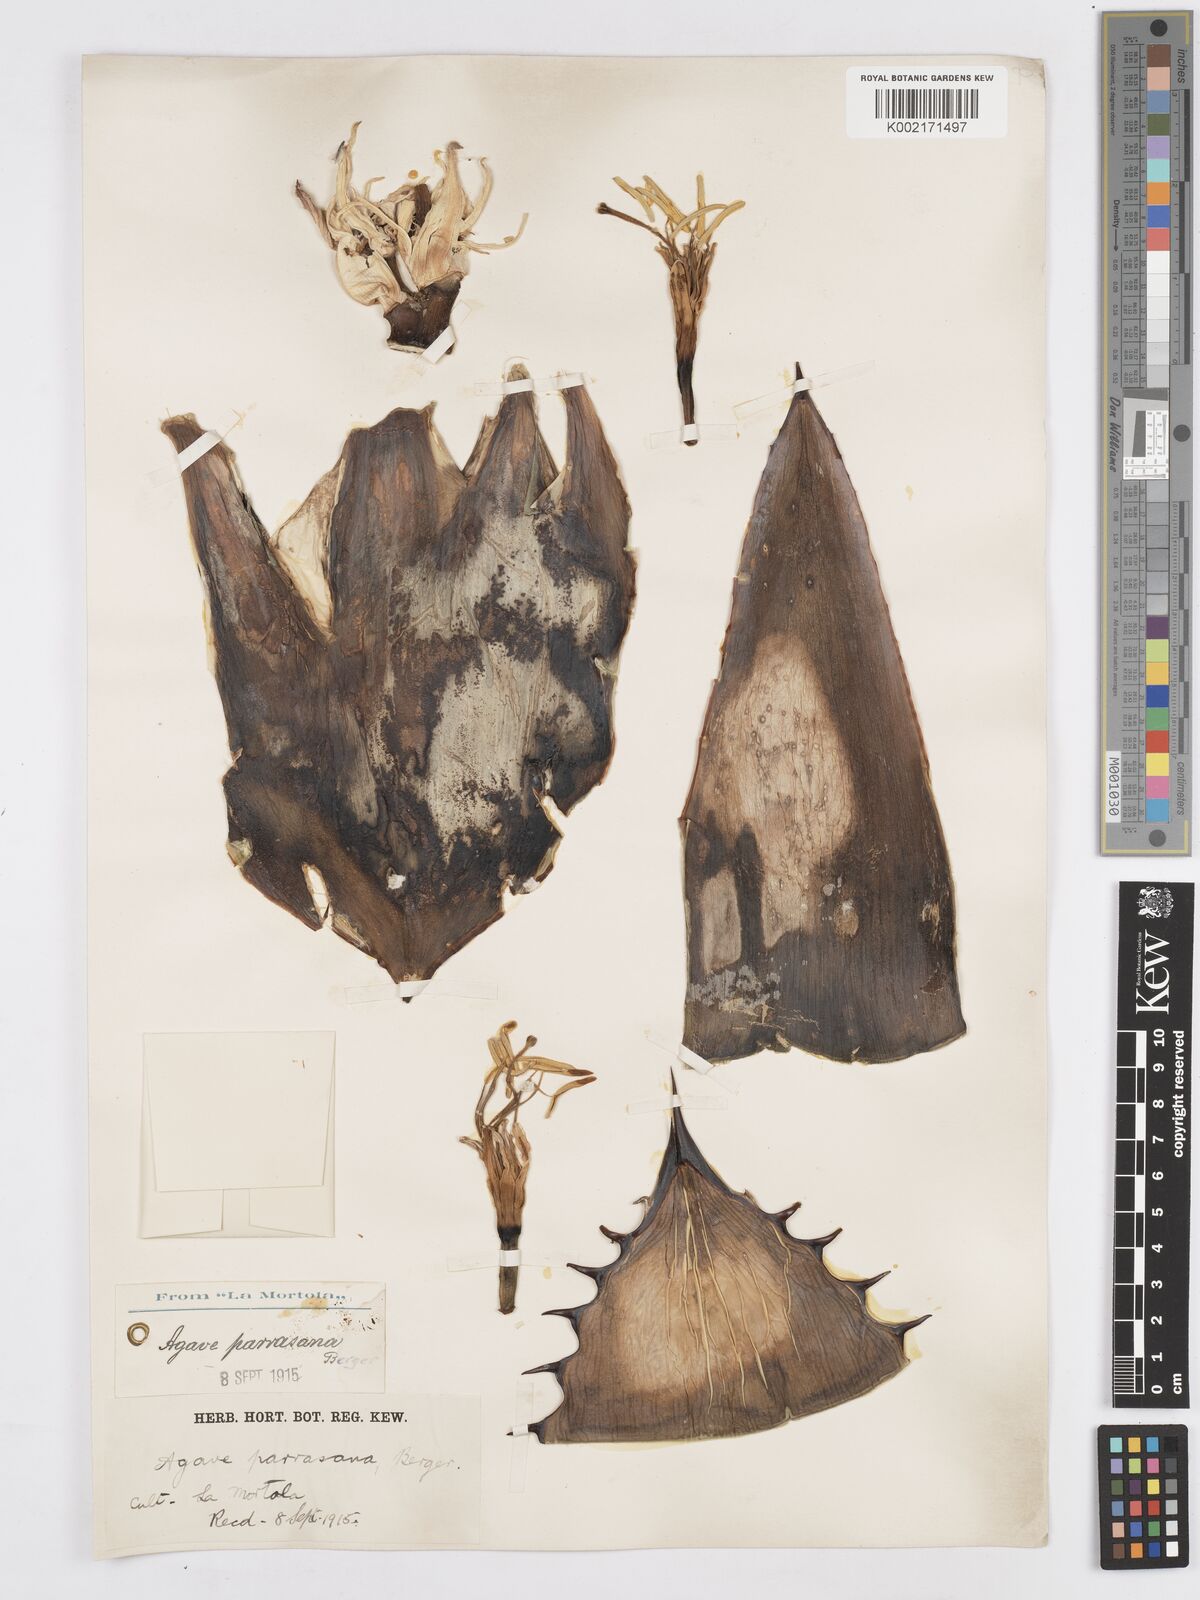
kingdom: Plantae
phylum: Tracheophyta
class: Liliopsida
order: Asparagales
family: Asparagaceae
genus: Agave
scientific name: Agave parrasana
